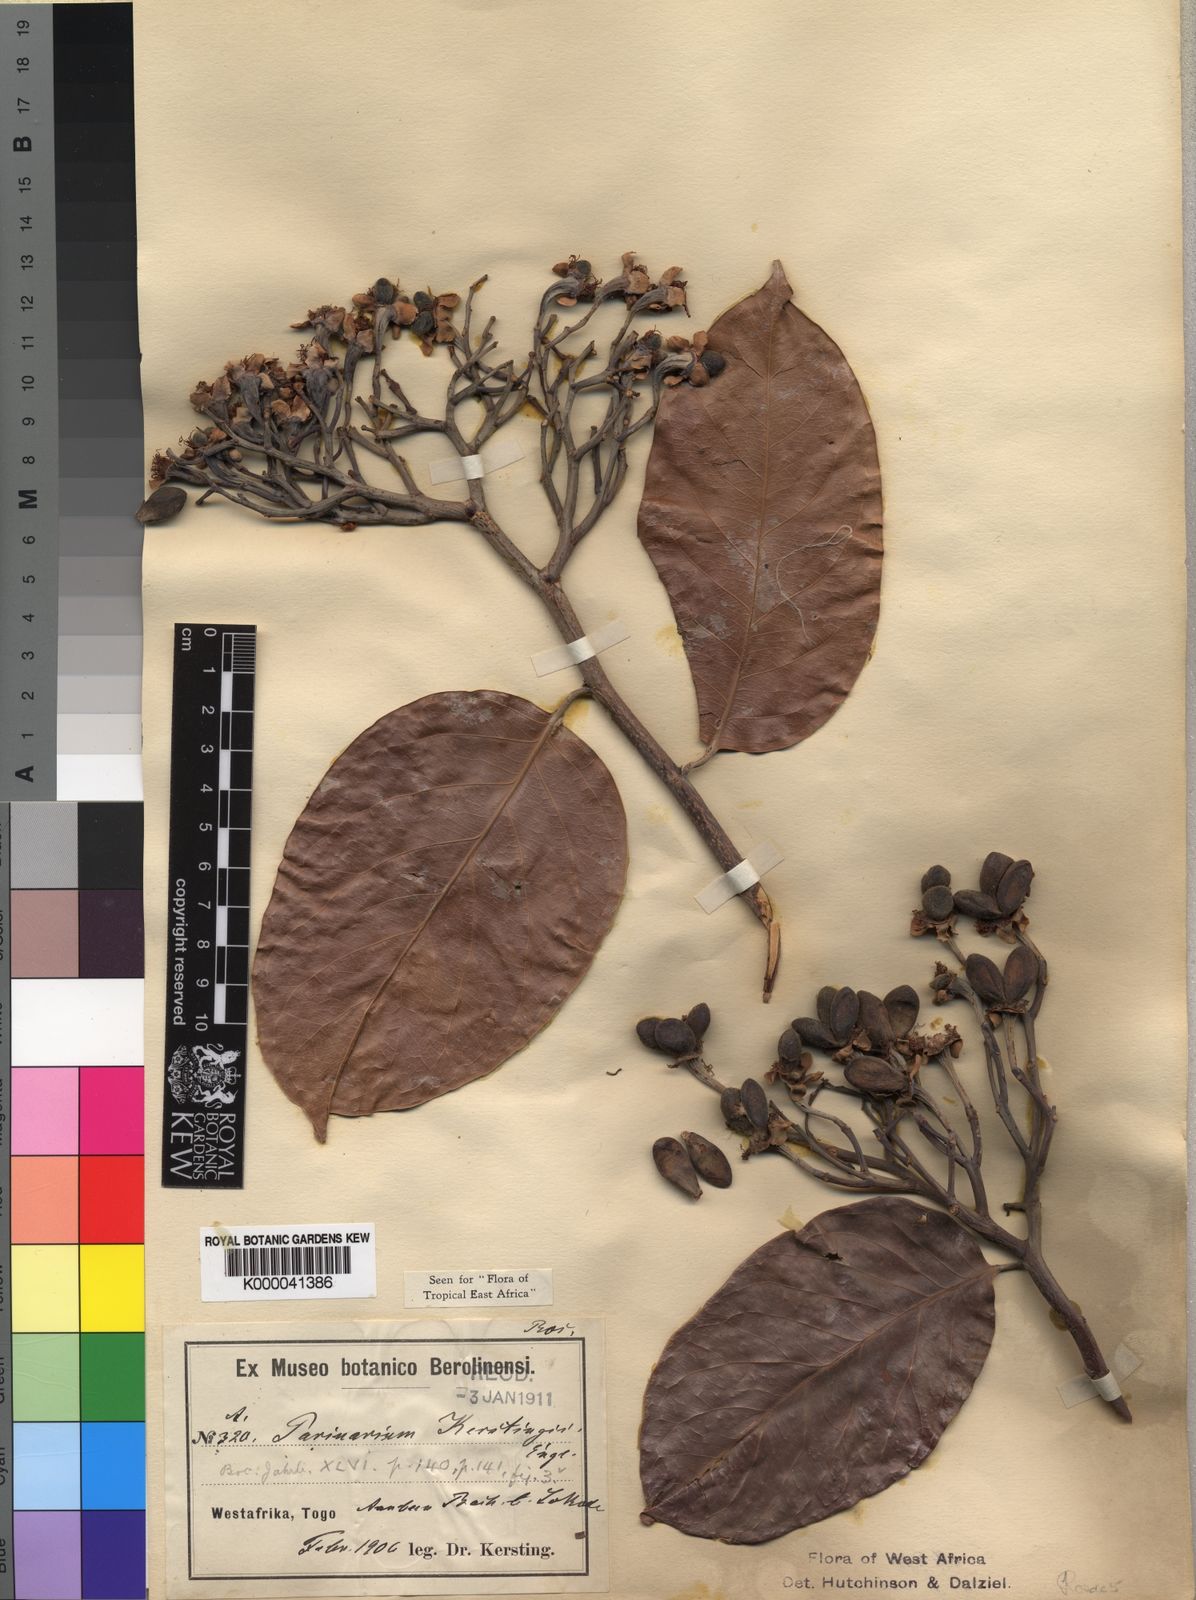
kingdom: Plantae
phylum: Tracheophyta
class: Magnoliopsida
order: Malpighiales
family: Chrysobalanaceae
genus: Maranthes
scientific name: Maranthes kerstingii
